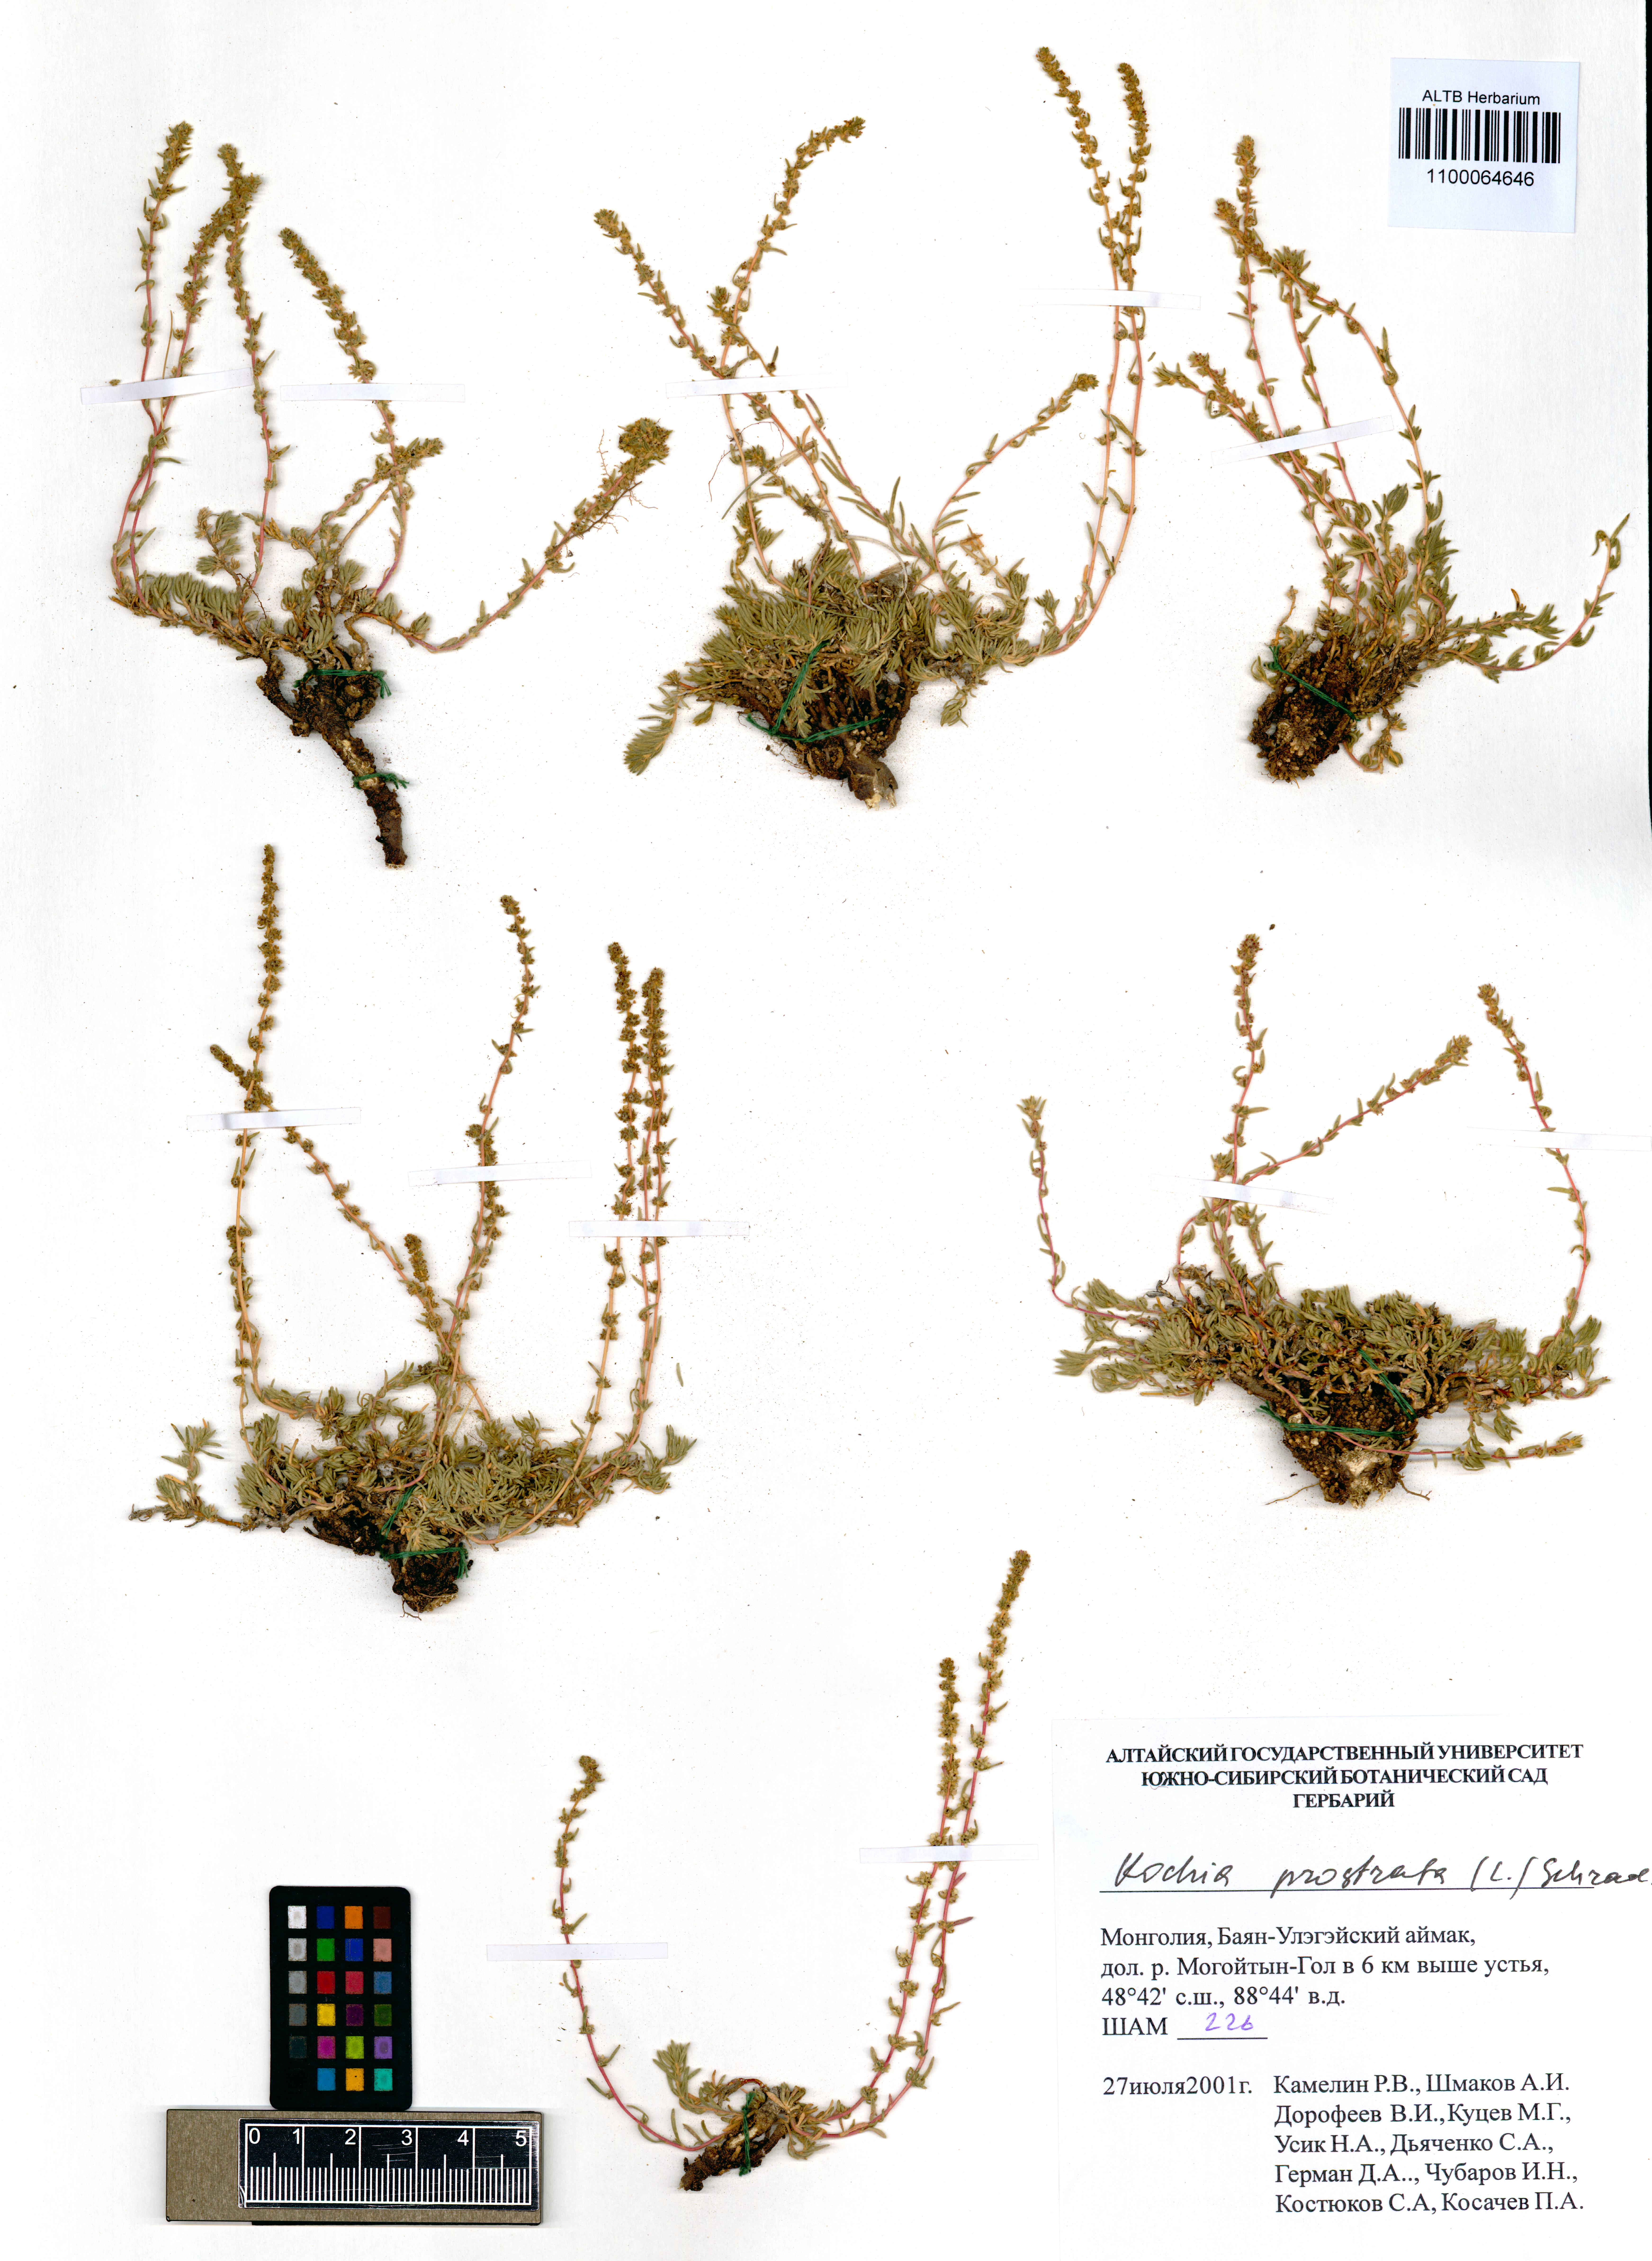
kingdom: Plantae
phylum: Tracheophyta
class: Magnoliopsida
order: Caryophyllales
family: Amaranthaceae
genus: Bassia
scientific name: Bassia prostrata
